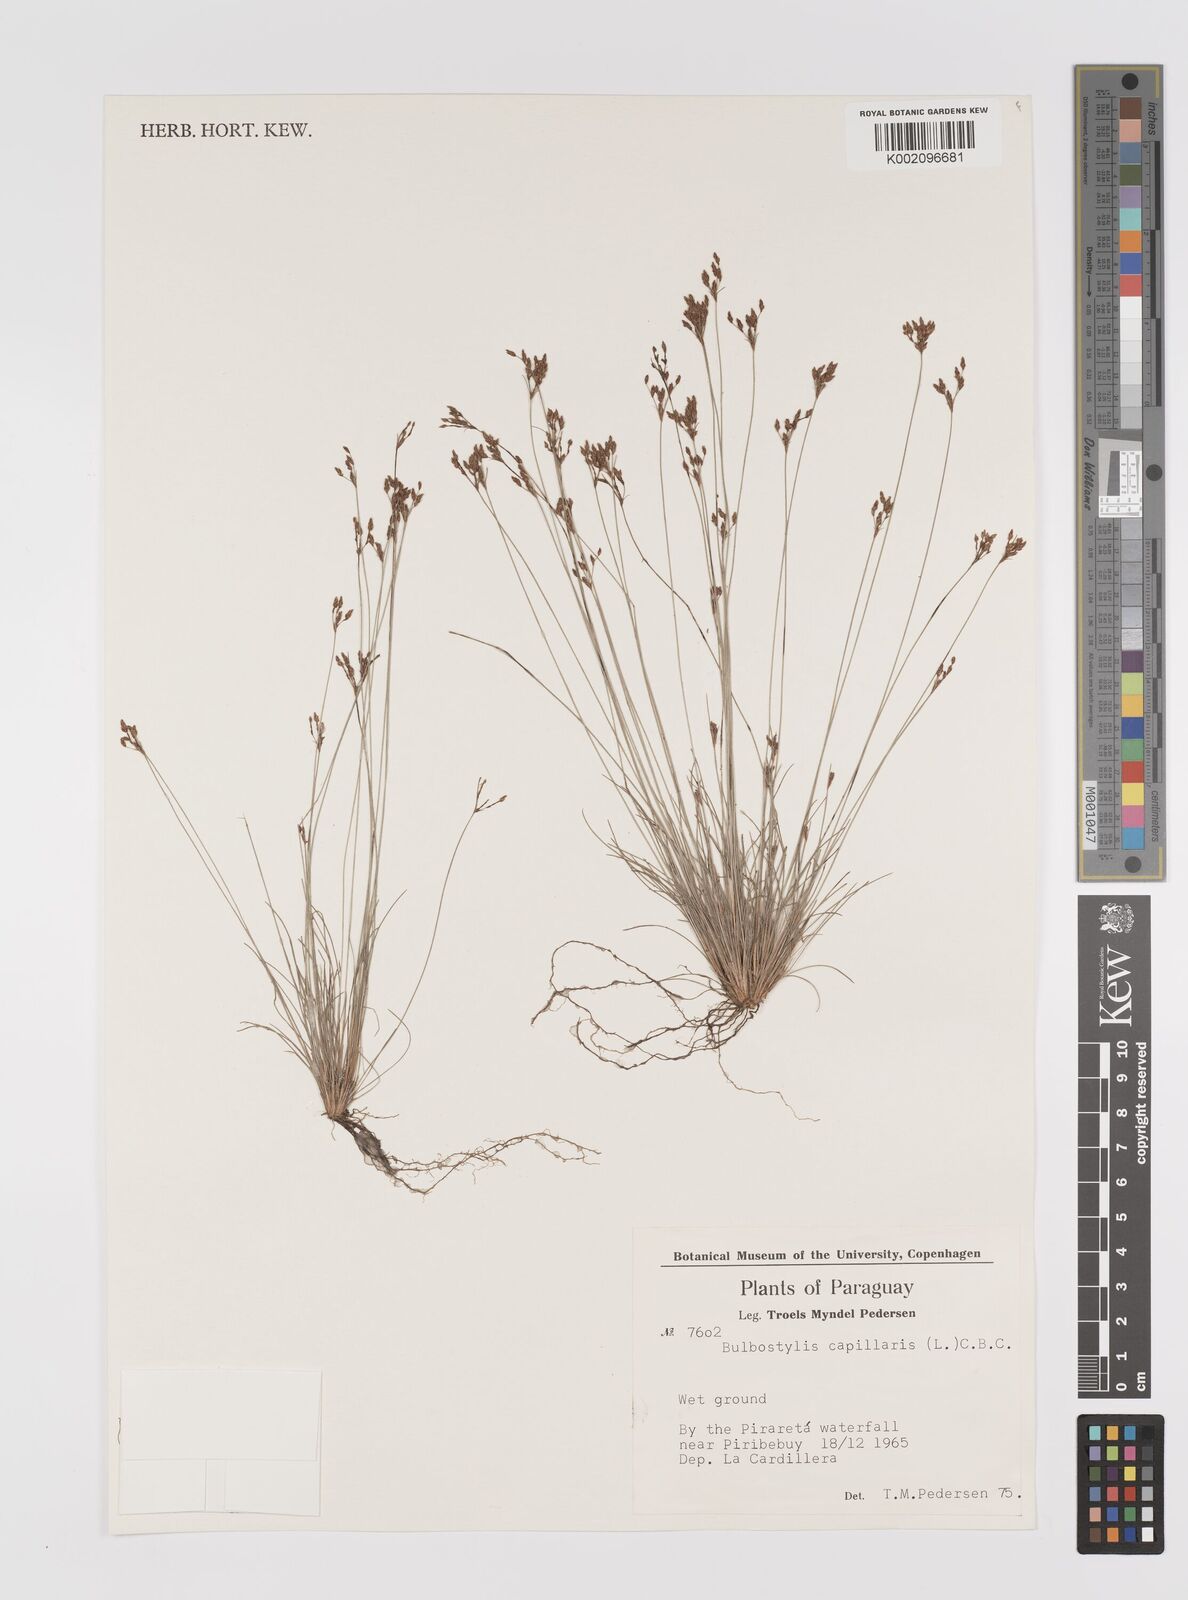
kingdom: Plantae
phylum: Tracheophyta
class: Liliopsida
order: Poales
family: Cyperaceae
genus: Bulbostylis
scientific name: Bulbostylis capillaris
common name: Densetuft hairsedge
